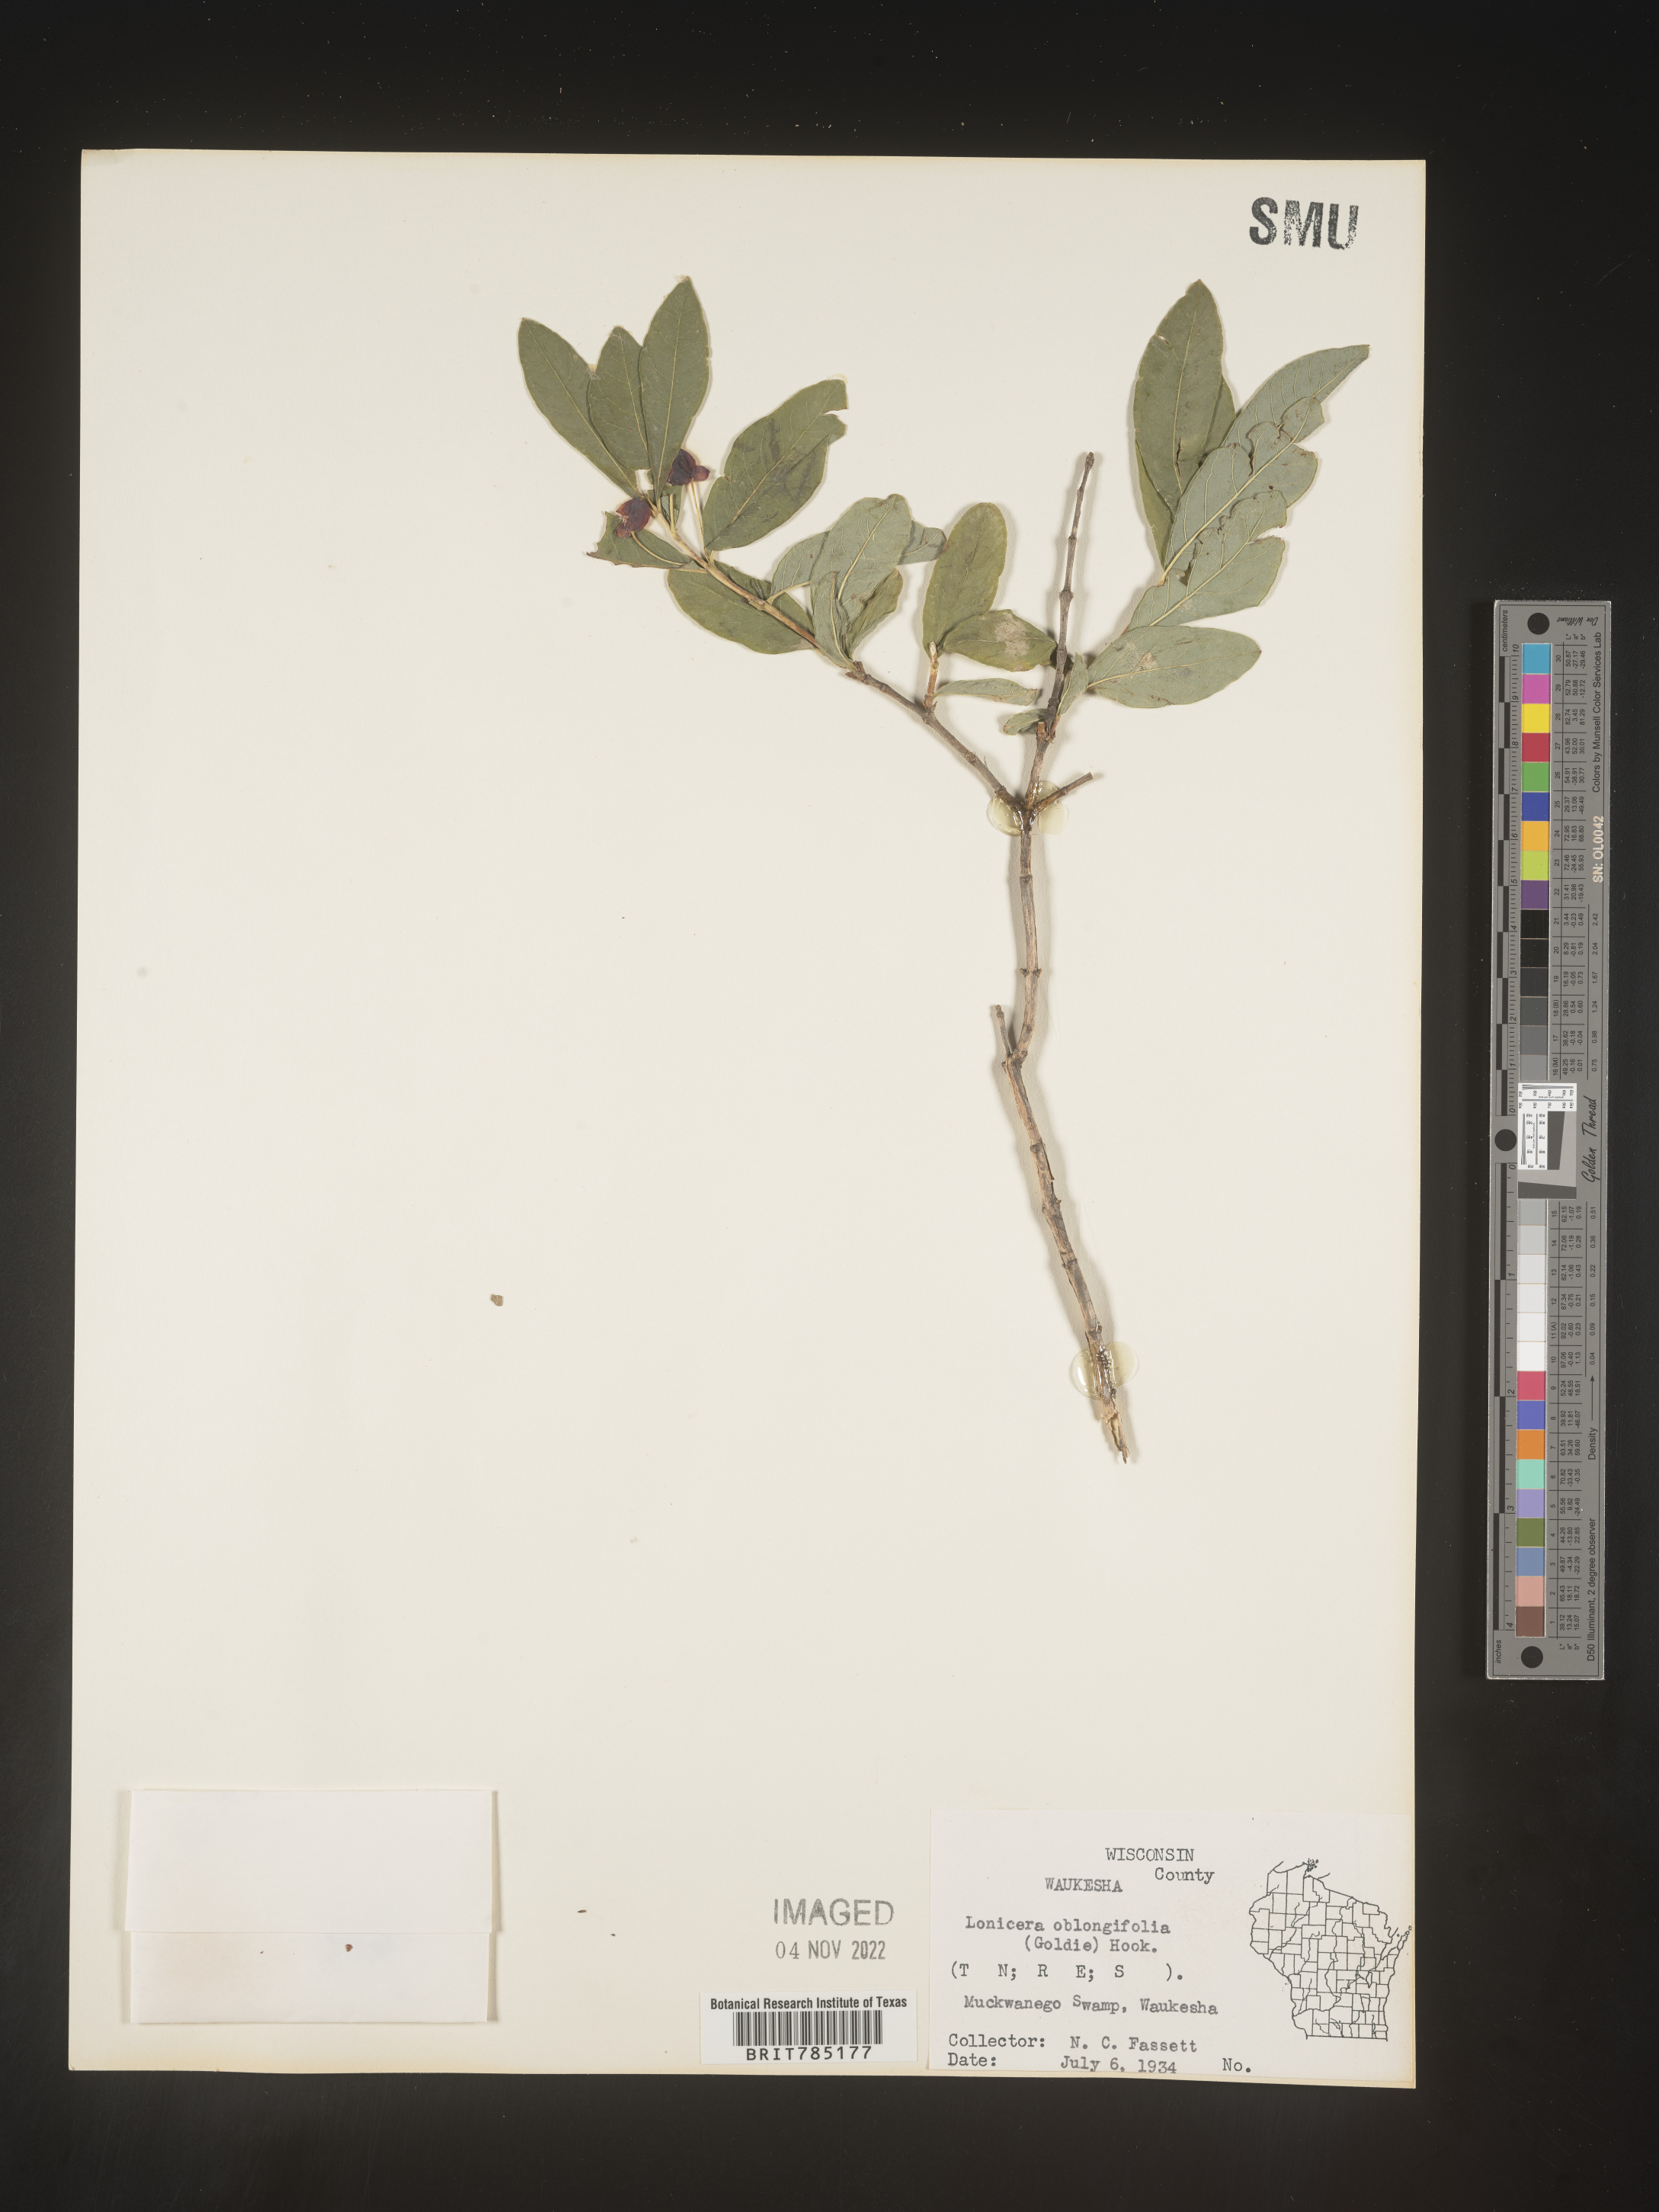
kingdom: Plantae
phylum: Tracheophyta
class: Magnoliopsida
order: Dipsacales
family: Caprifoliaceae
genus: Lonicera
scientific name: Lonicera
